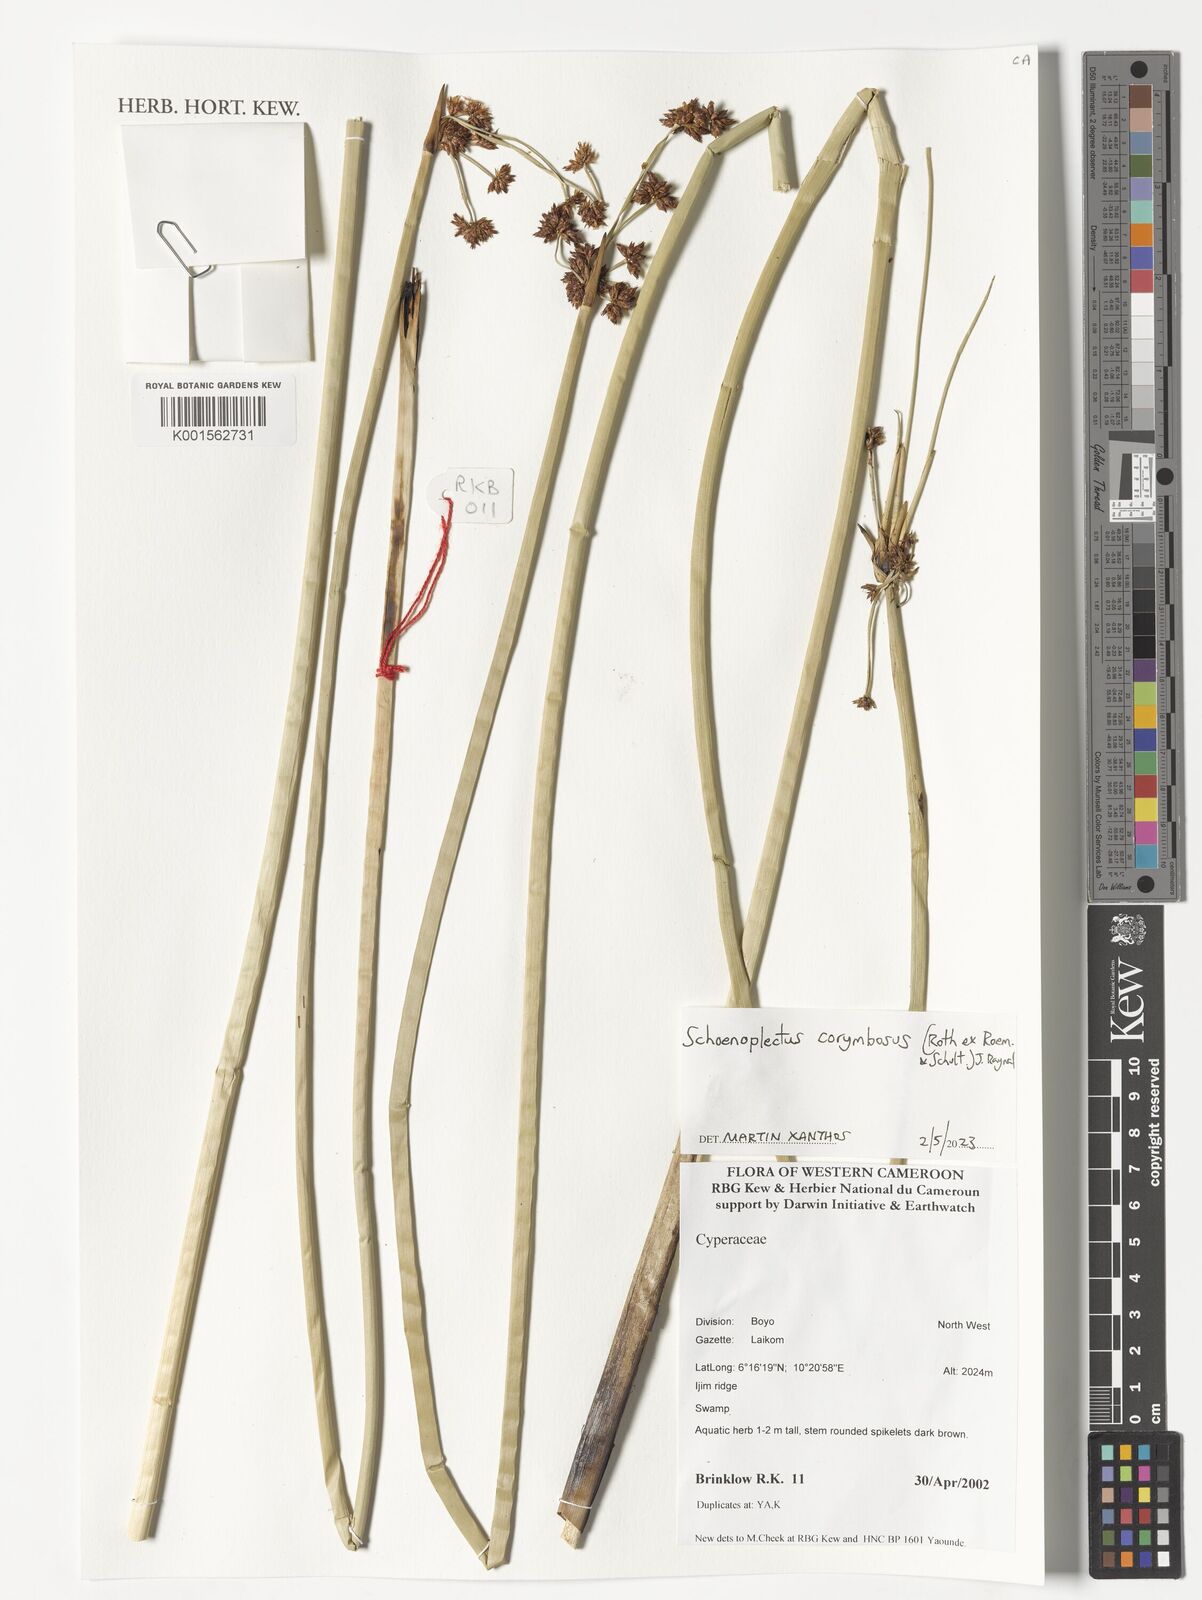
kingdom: Plantae
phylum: Tracheophyta
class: Liliopsida
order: Poales
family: Cyperaceae
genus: Schoenoplectiella
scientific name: Schoenoplectiella corymbosa
